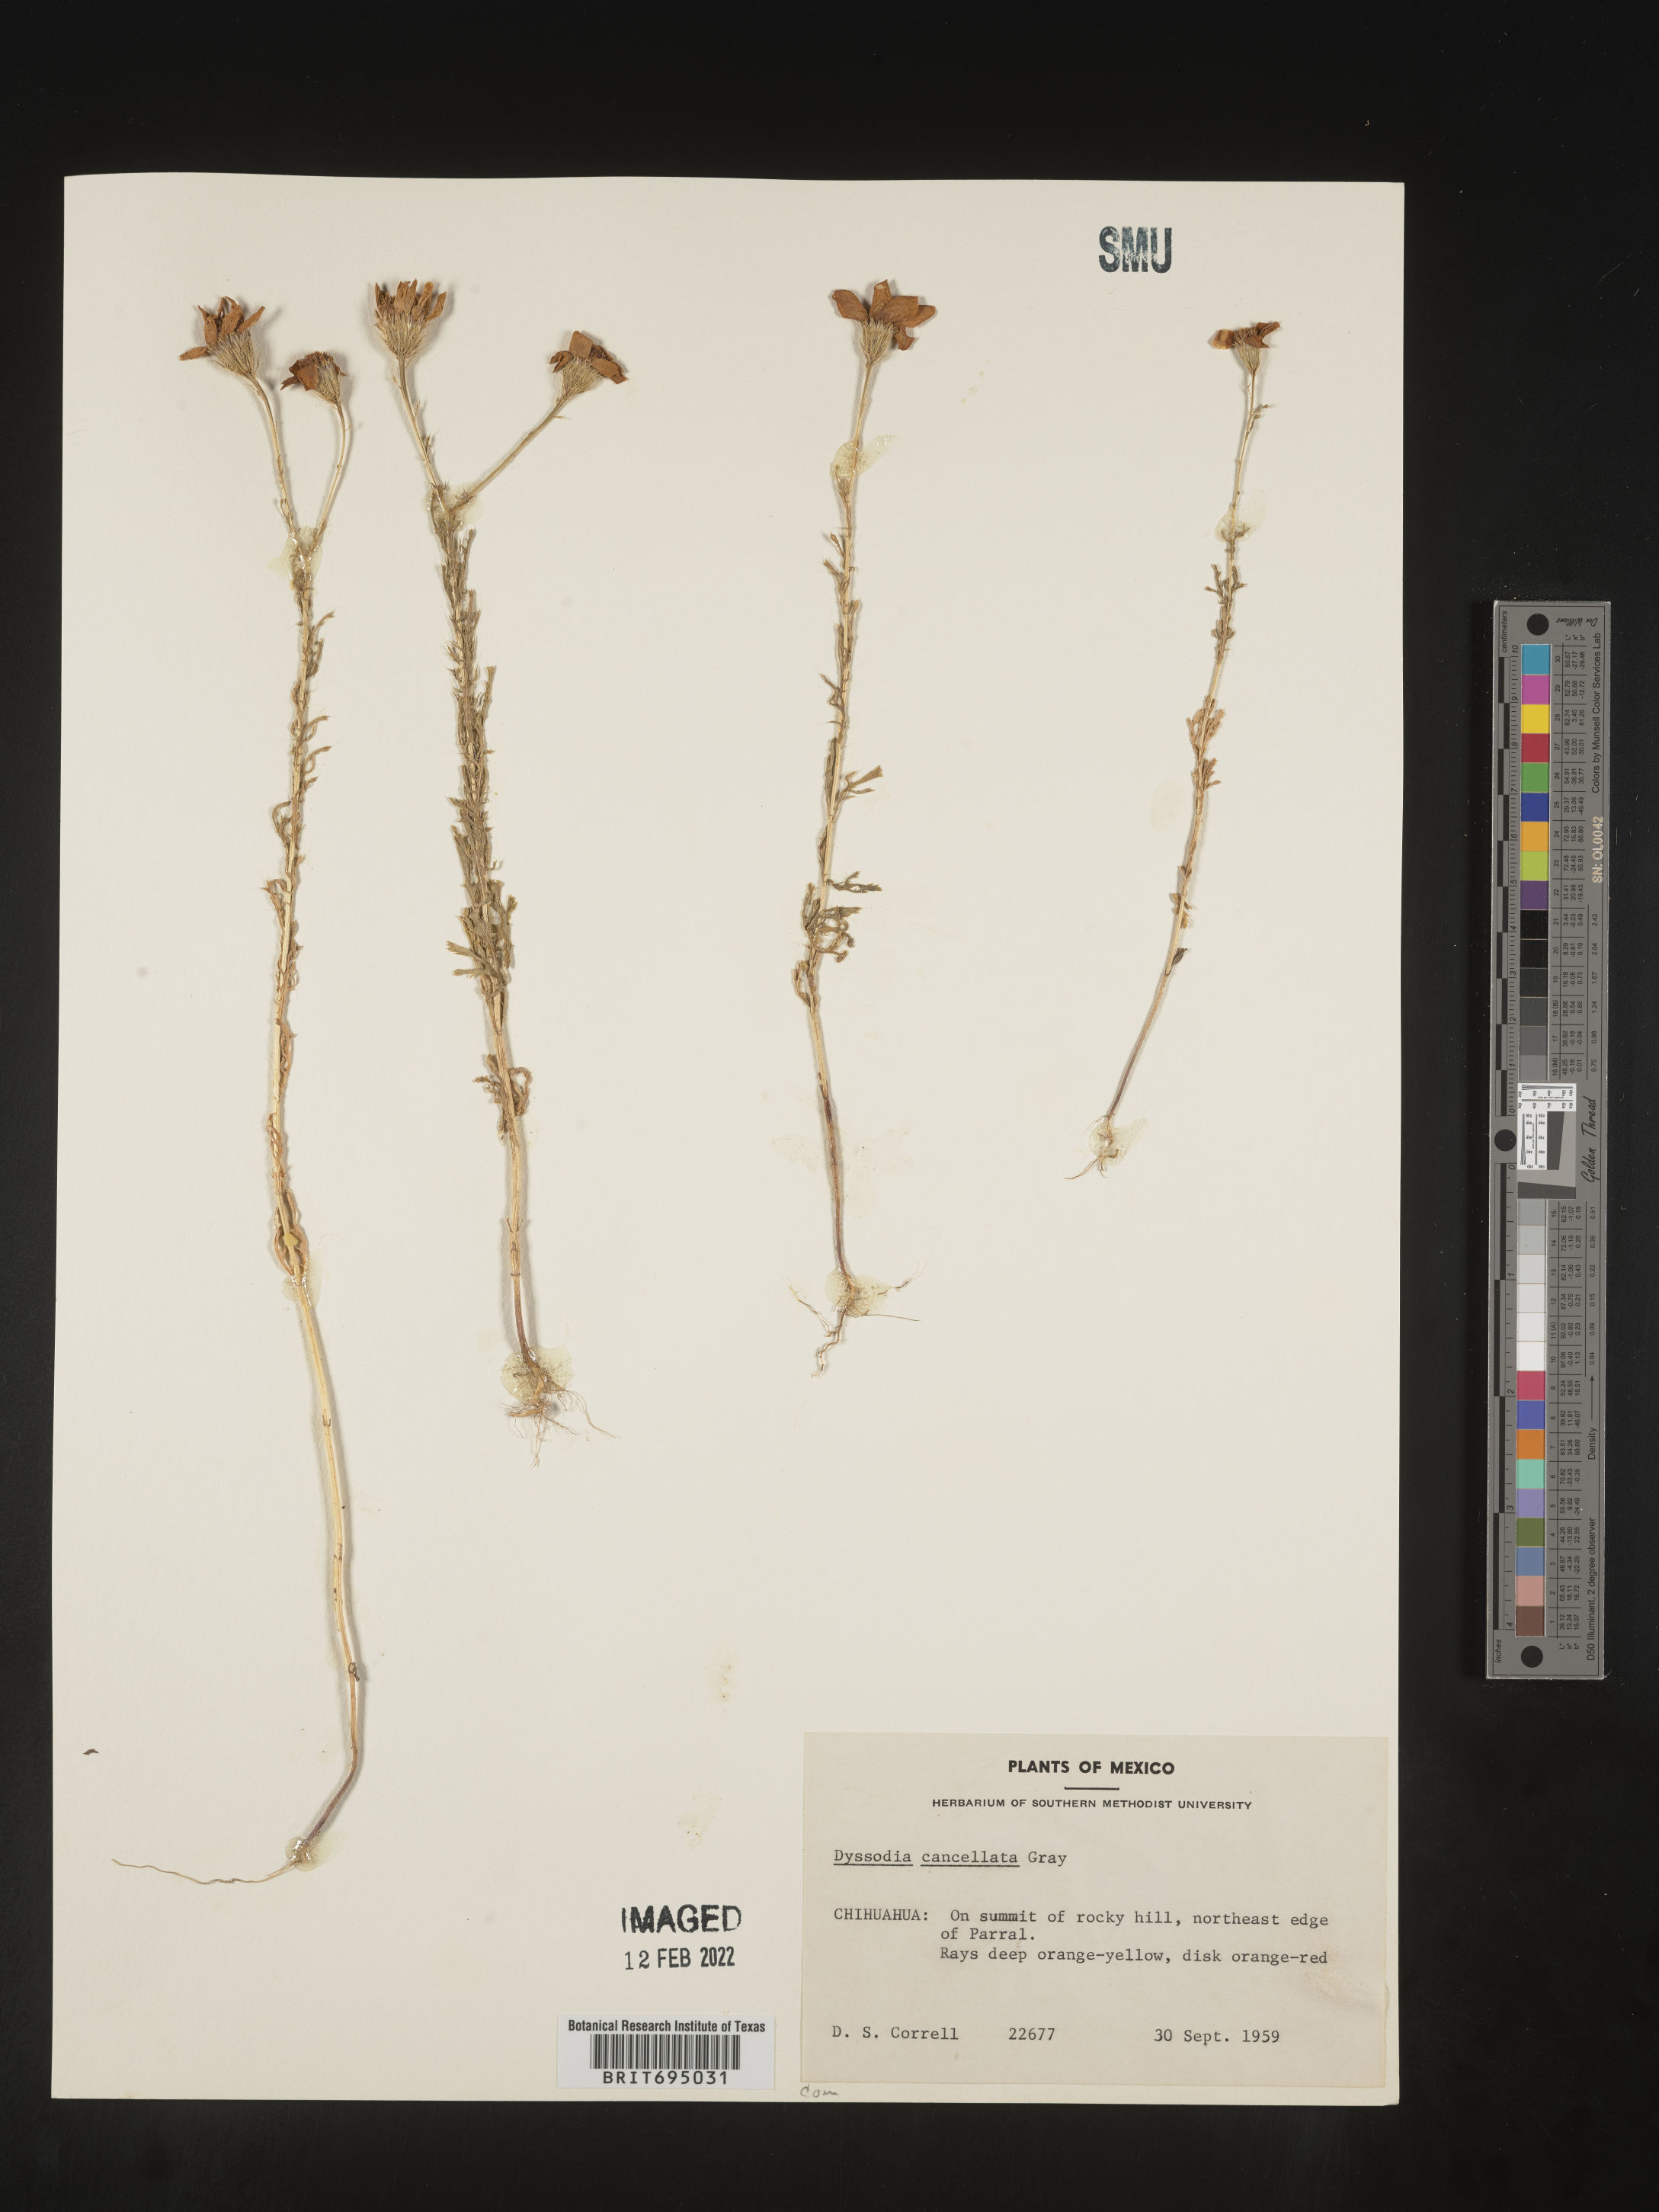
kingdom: Plantae
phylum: Tracheophyta
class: Magnoliopsida
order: Asterales
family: Asteraceae
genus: Adenophyllum
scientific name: Adenophyllum cancellatum
